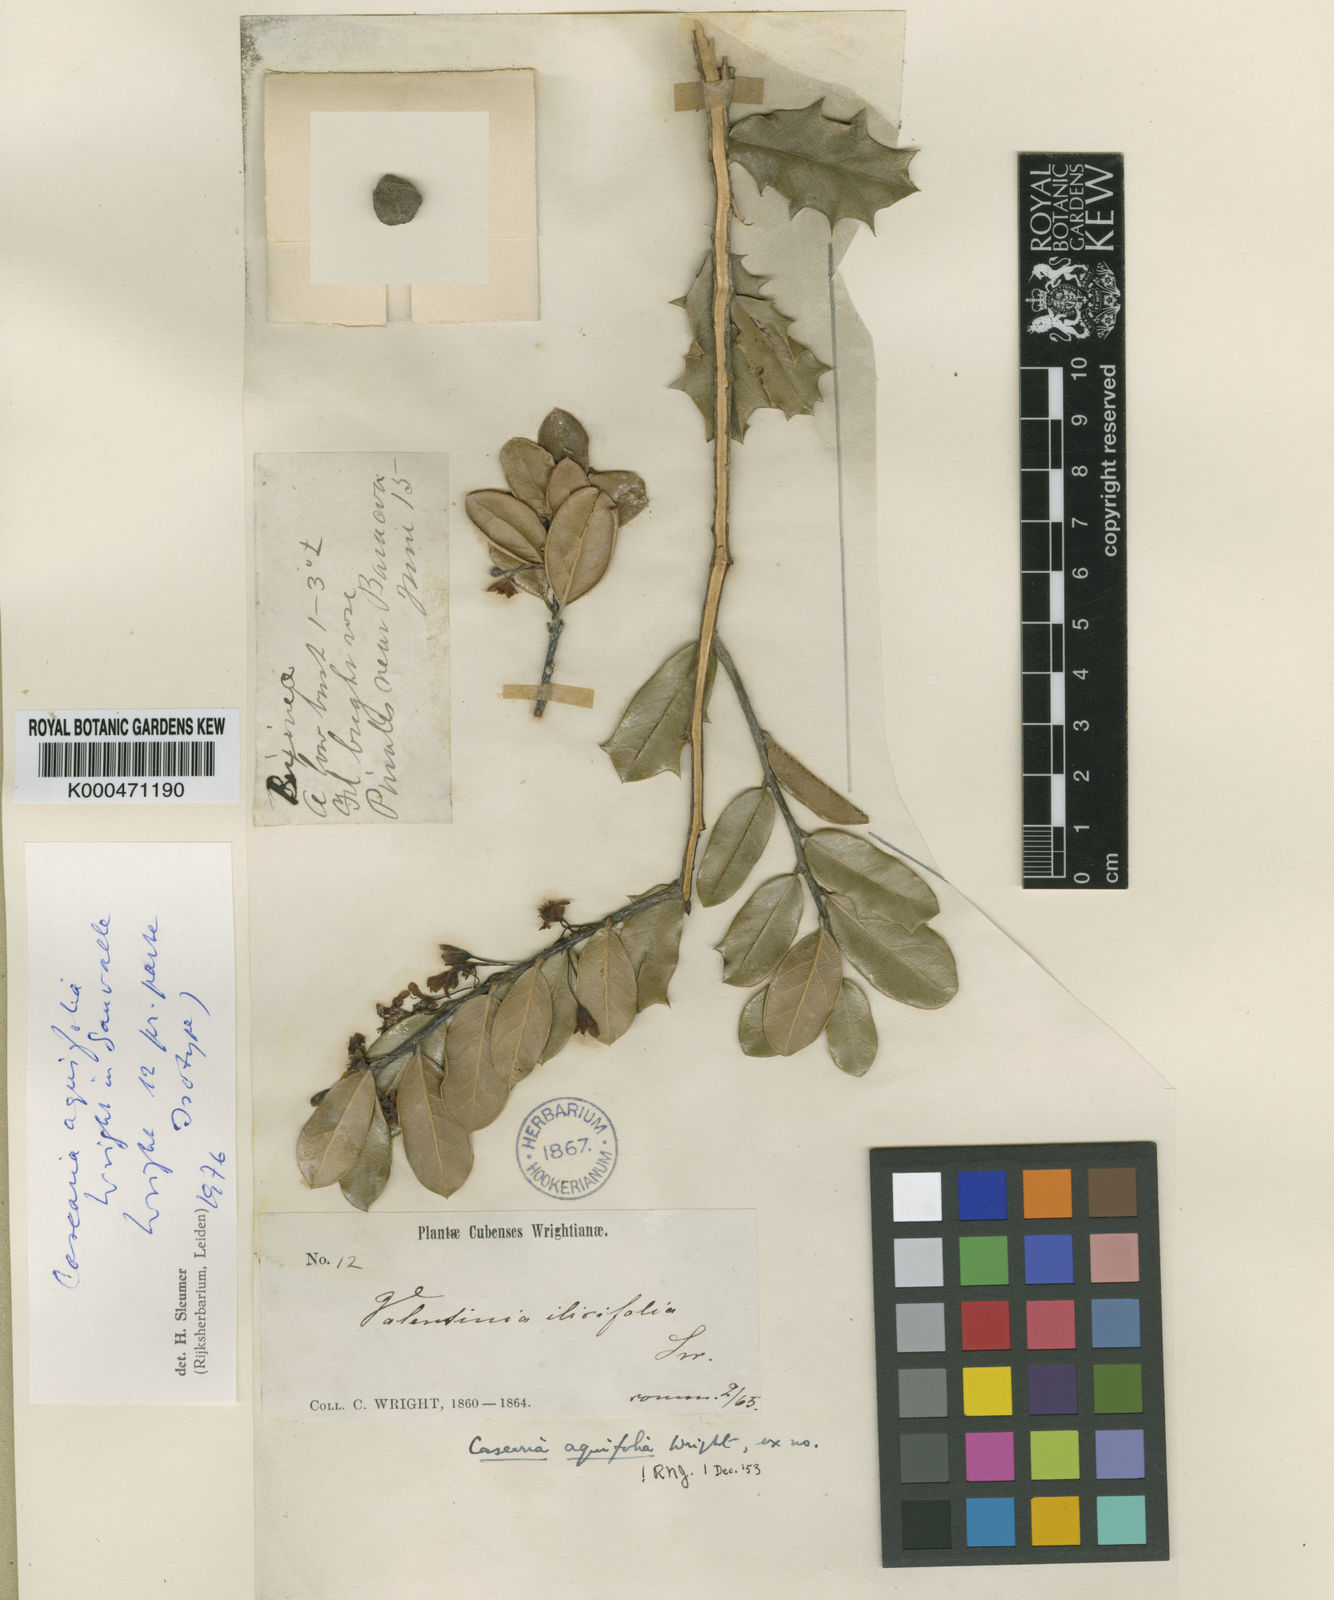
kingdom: Plantae
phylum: Tracheophyta
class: Magnoliopsida
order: Malpighiales
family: Salicaceae
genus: Casearia
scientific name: Casearia aquifolia
